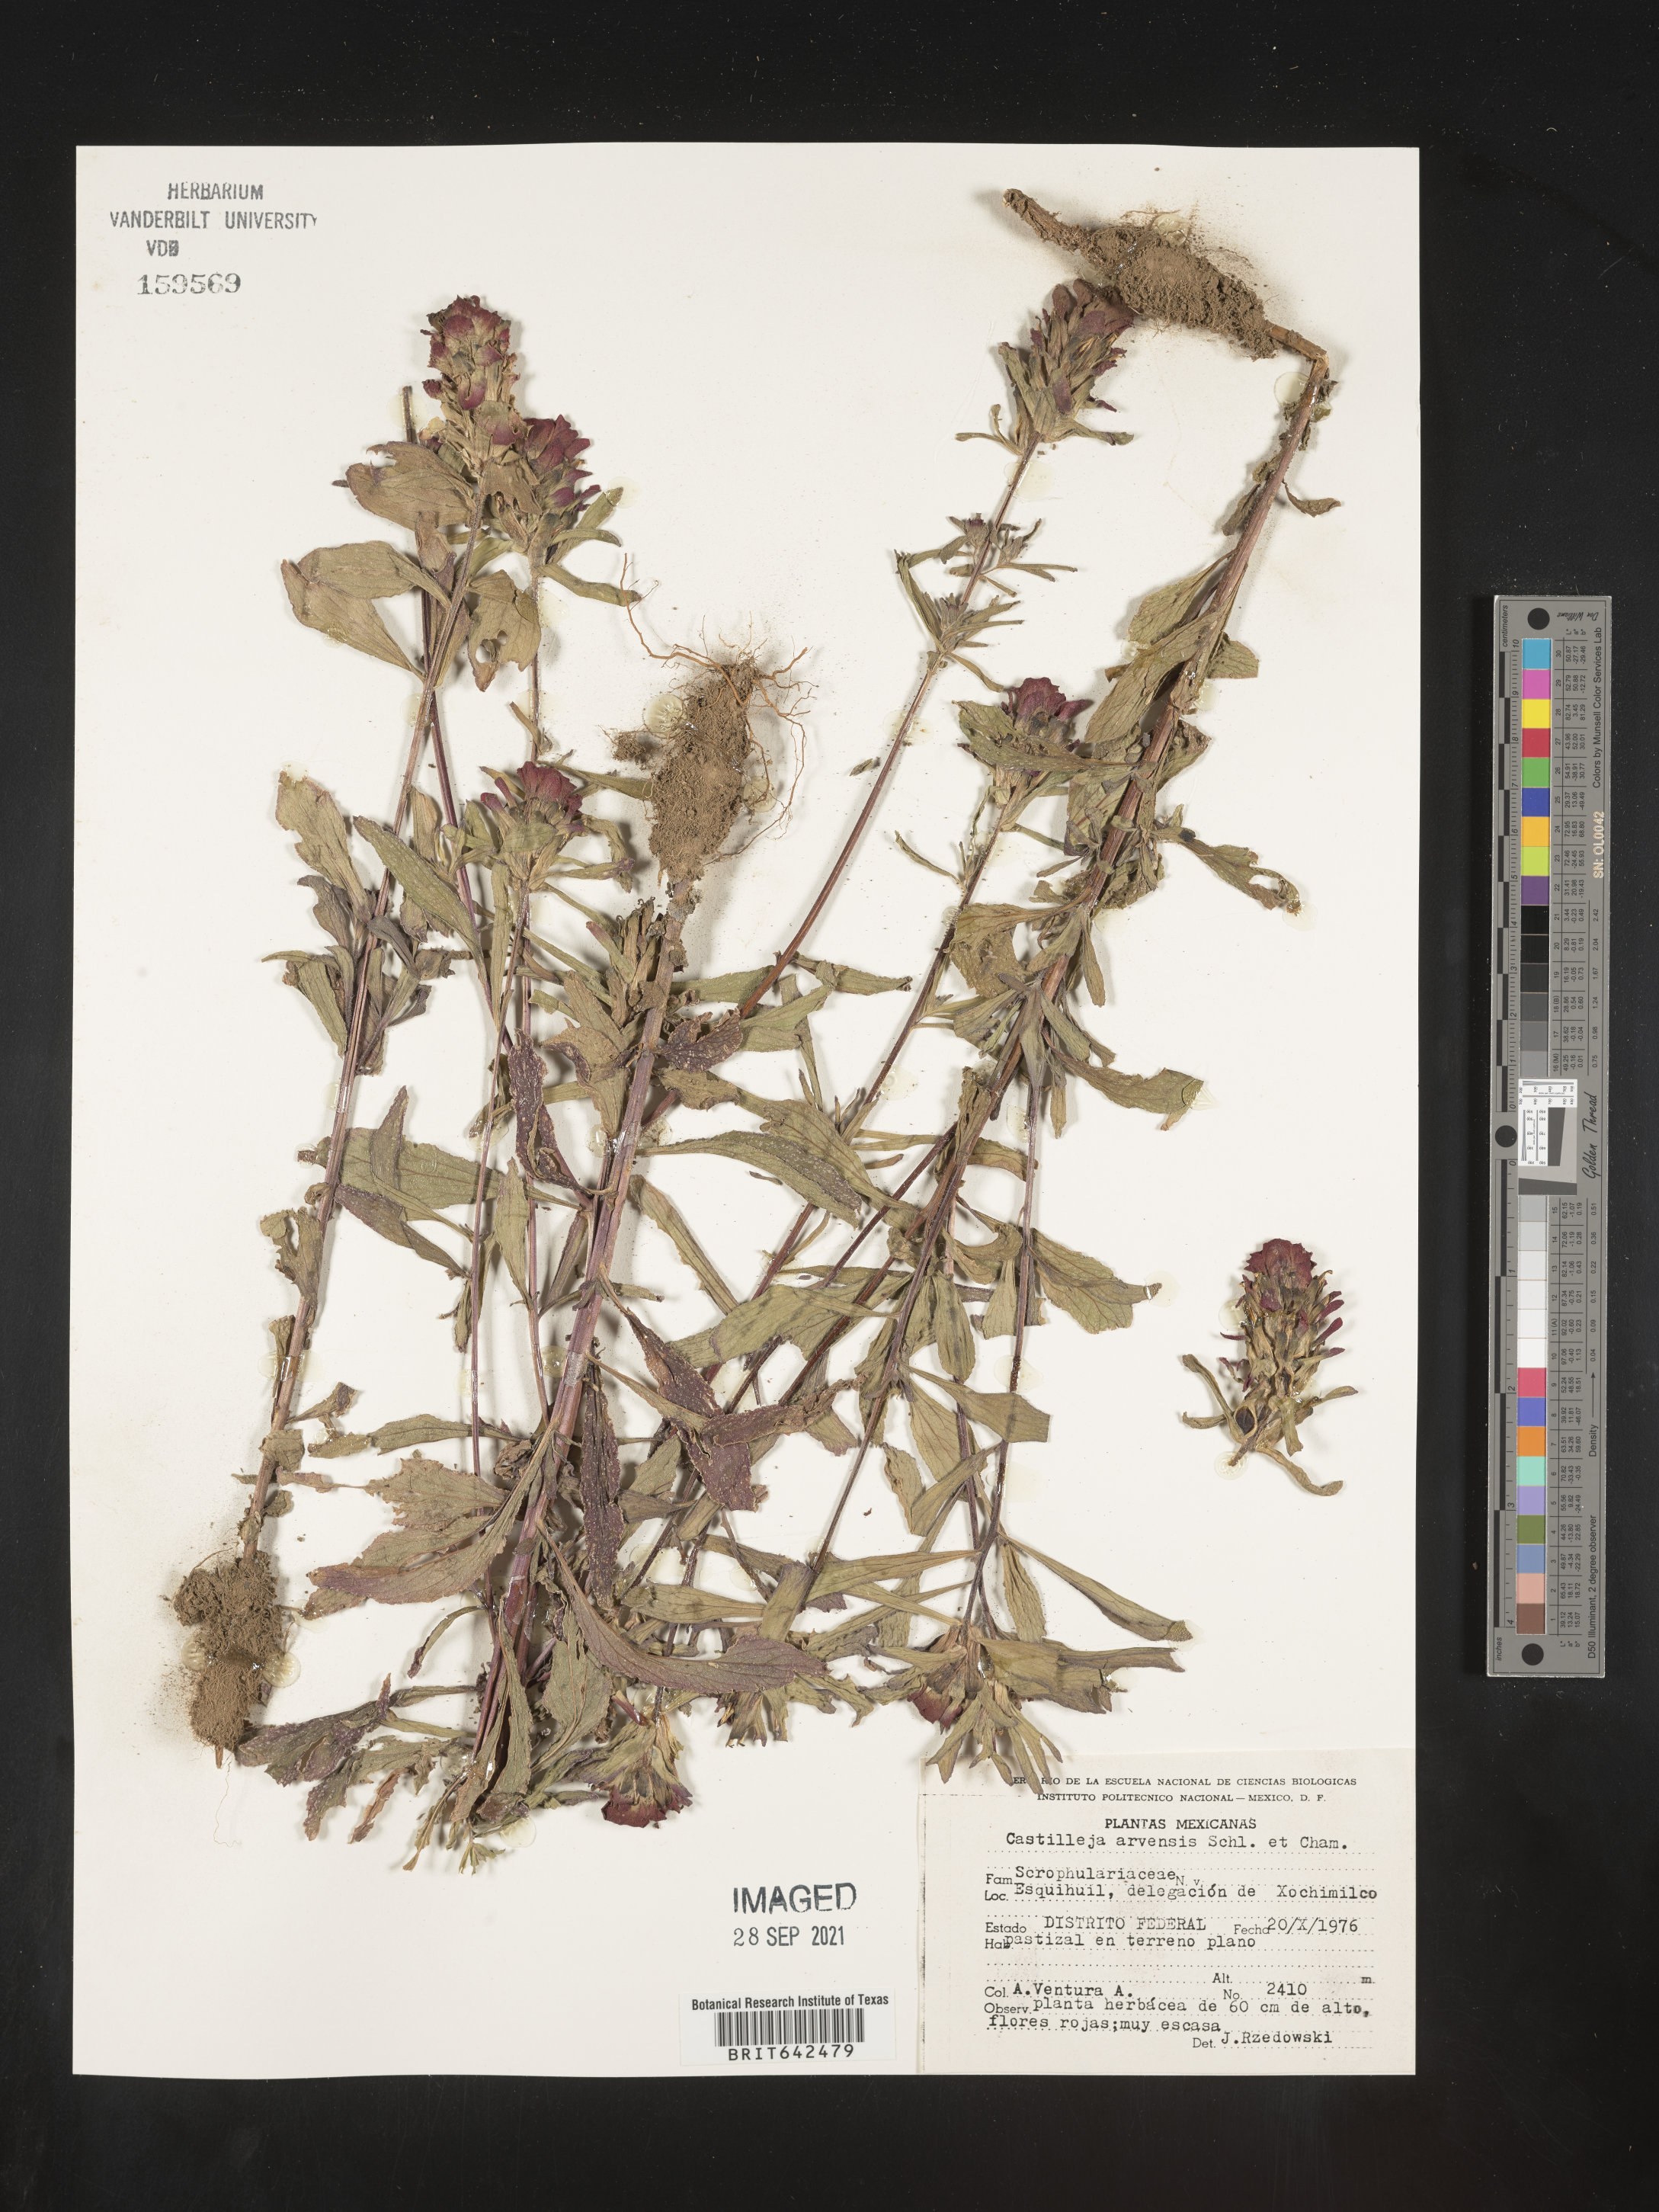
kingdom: Plantae
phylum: Tracheophyta
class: Magnoliopsida
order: Lamiales
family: Orobanchaceae
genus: Castilleja
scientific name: Castilleja
